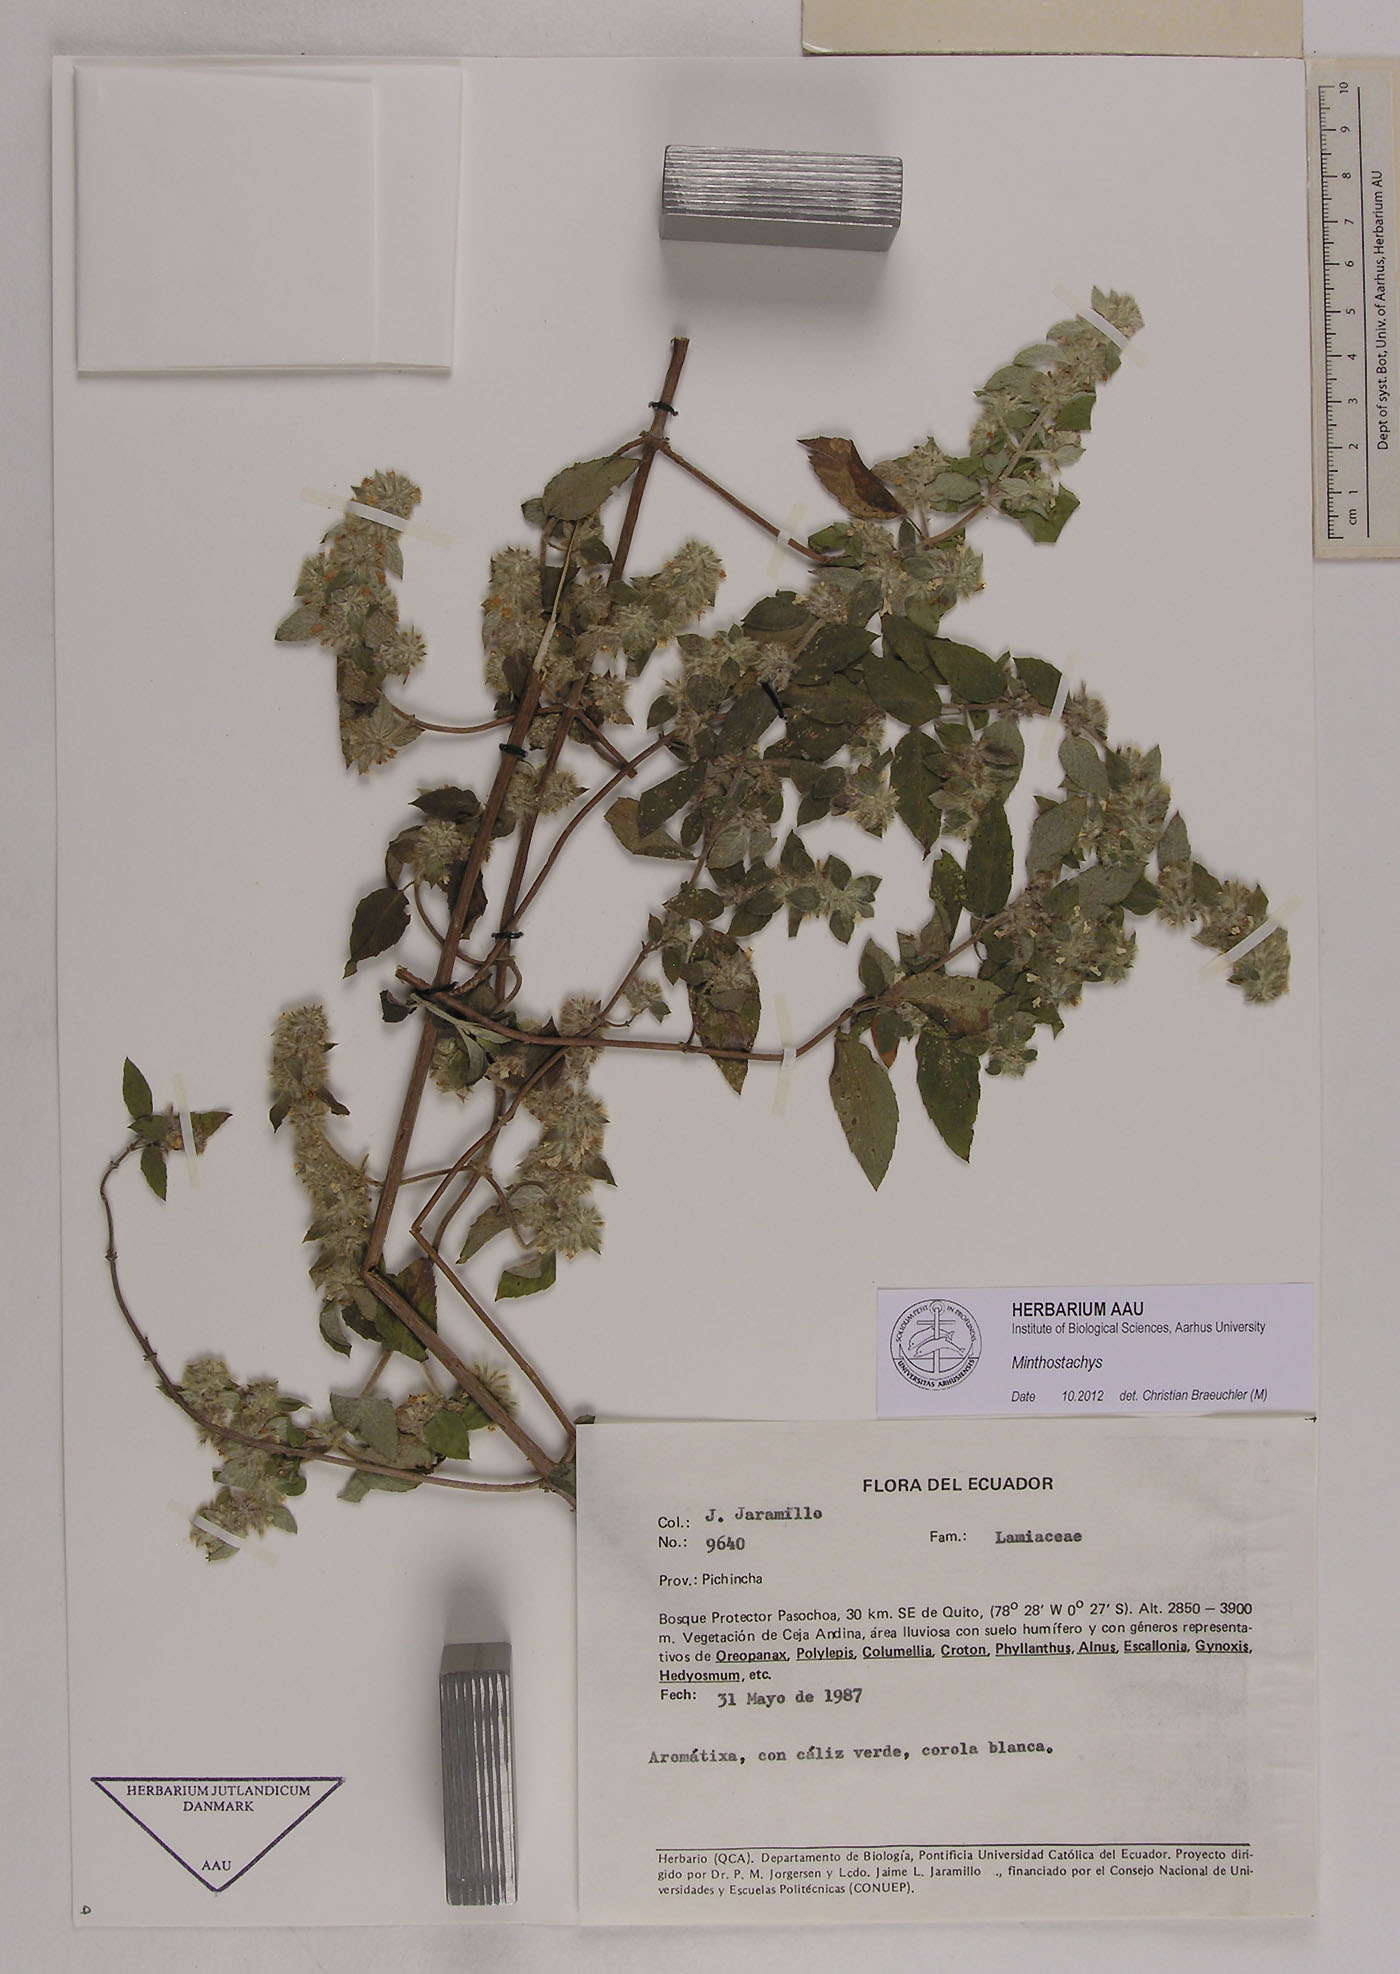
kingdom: Plantae
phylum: Tracheophyta
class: Magnoliopsida
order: Lamiales
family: Lamiaceae
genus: Minthostachys
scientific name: Minthostachys
